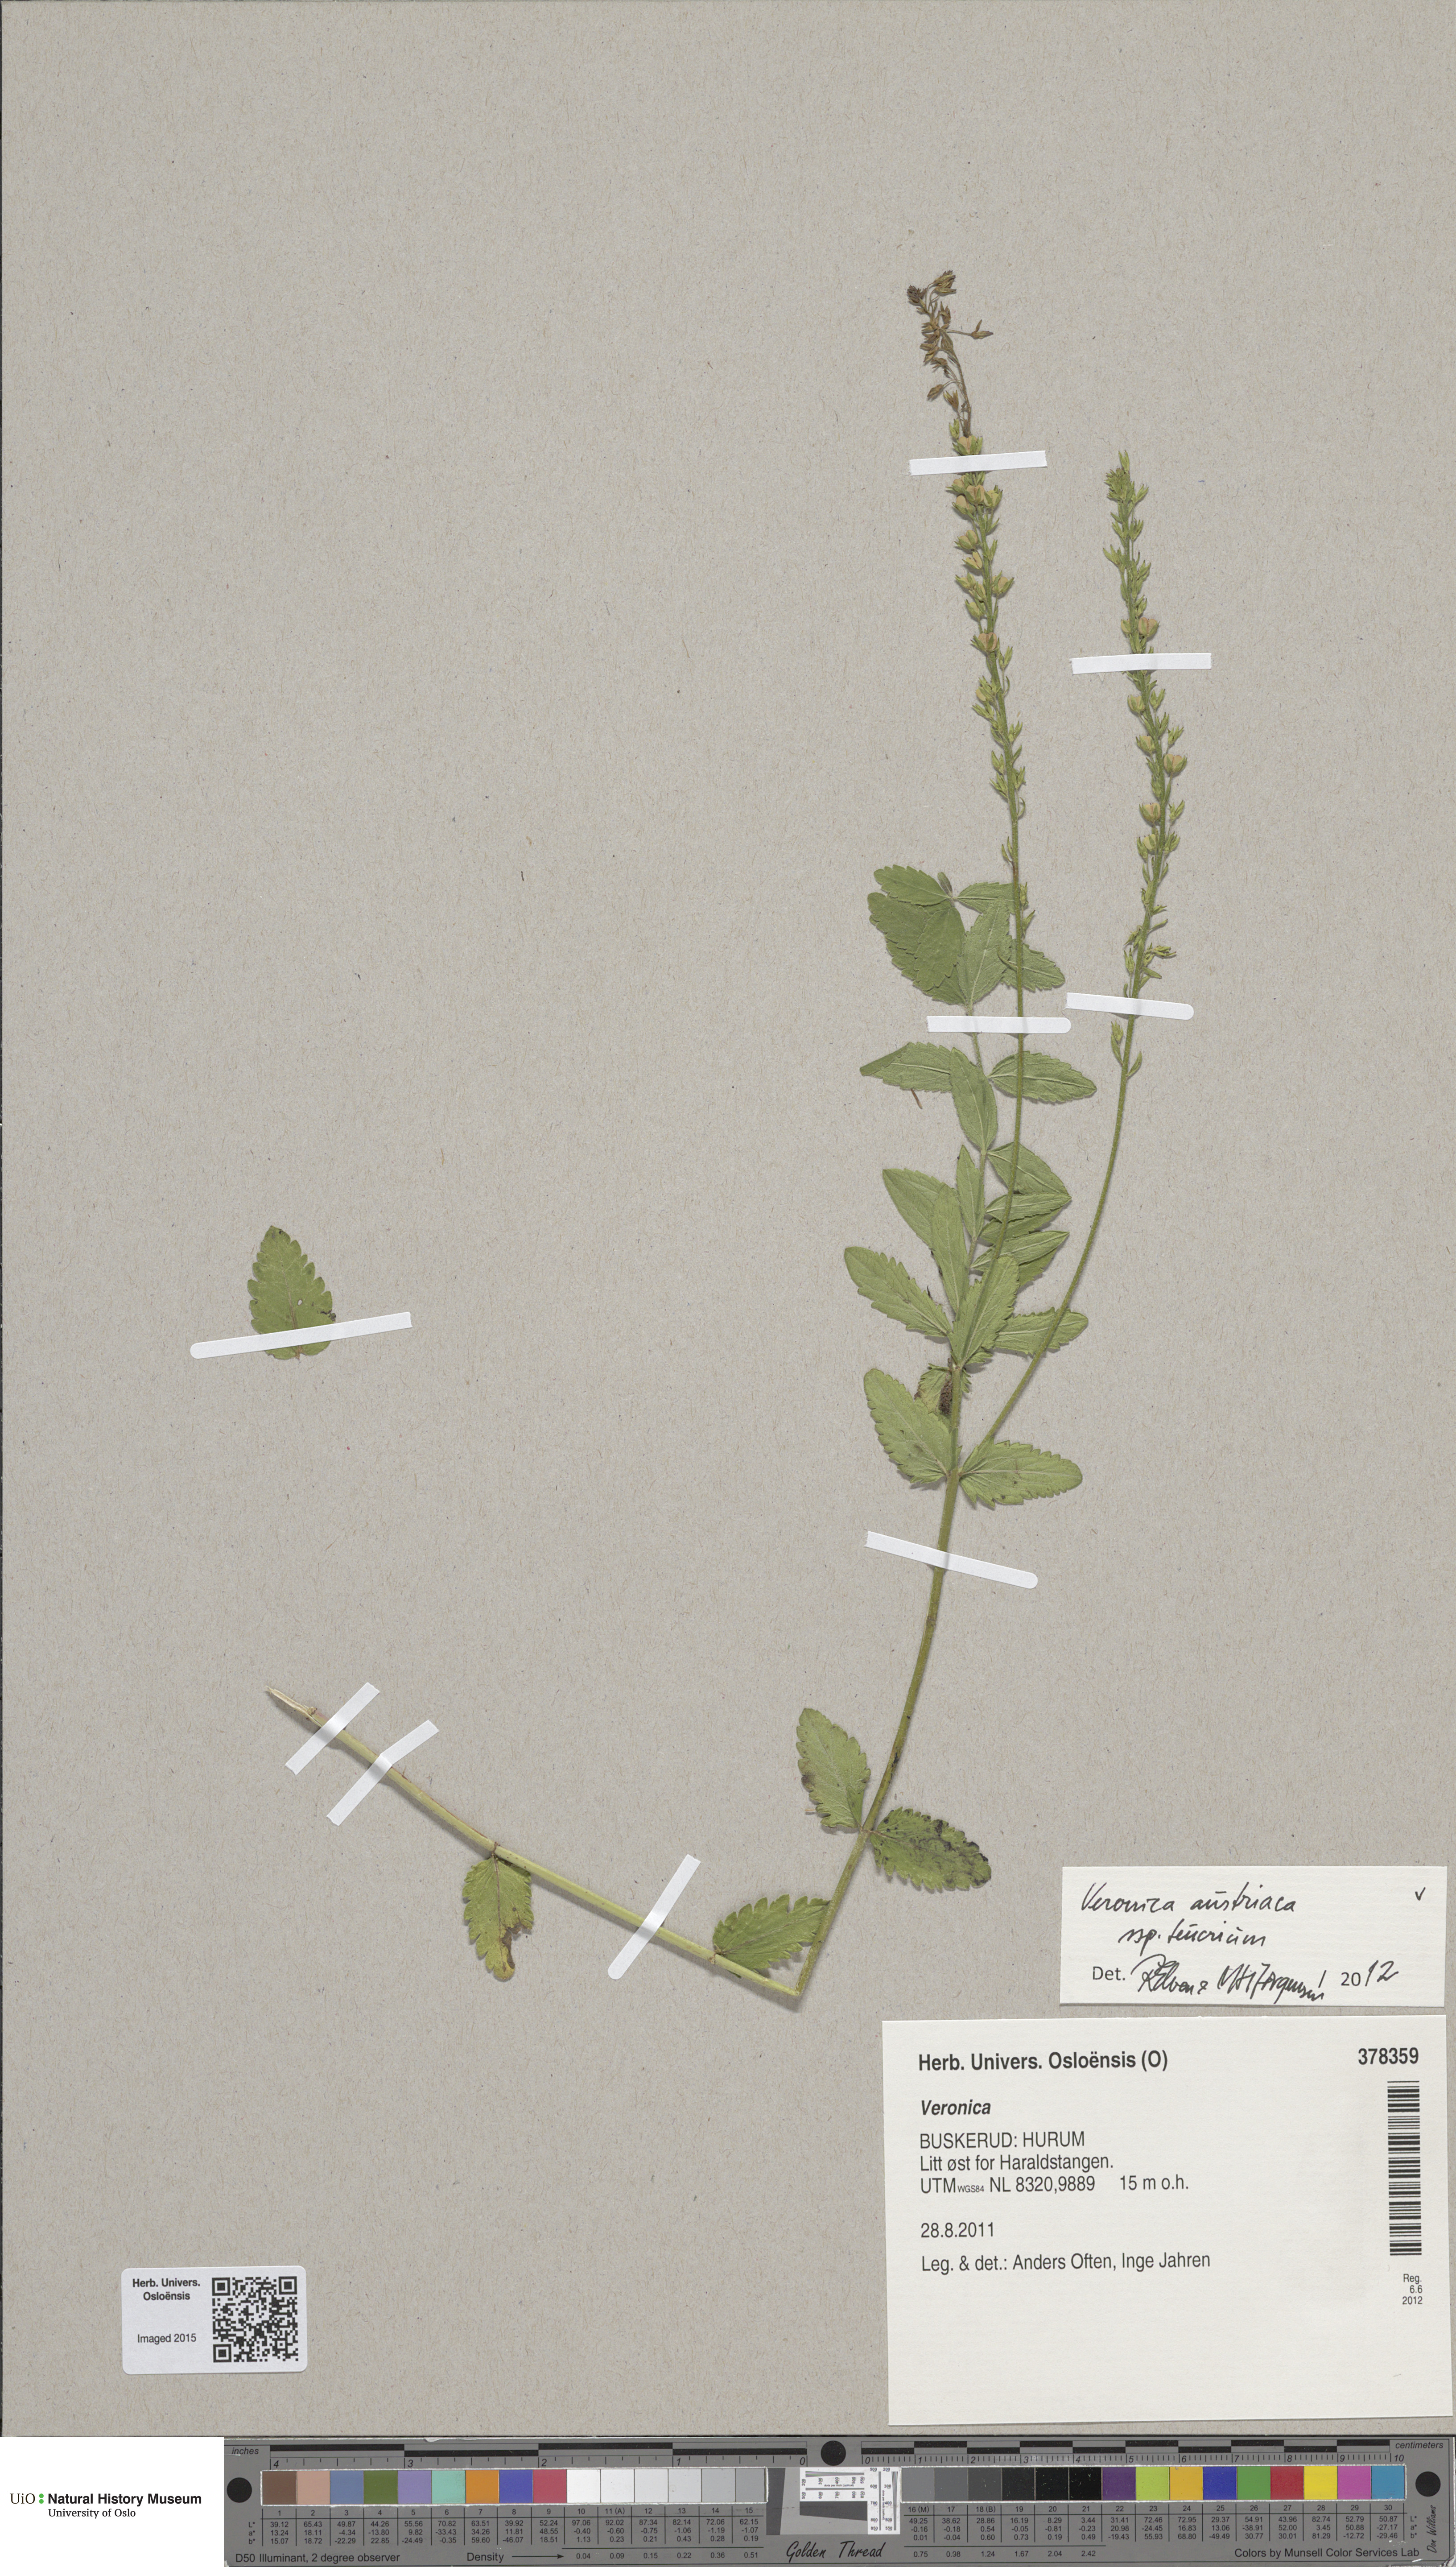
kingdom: Plantae
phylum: Tracheophyta
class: Magnoliopsida
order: Lamiales
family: Plantaginaceae
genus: Veronica
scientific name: Veronica teucrium
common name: Large speedwell
